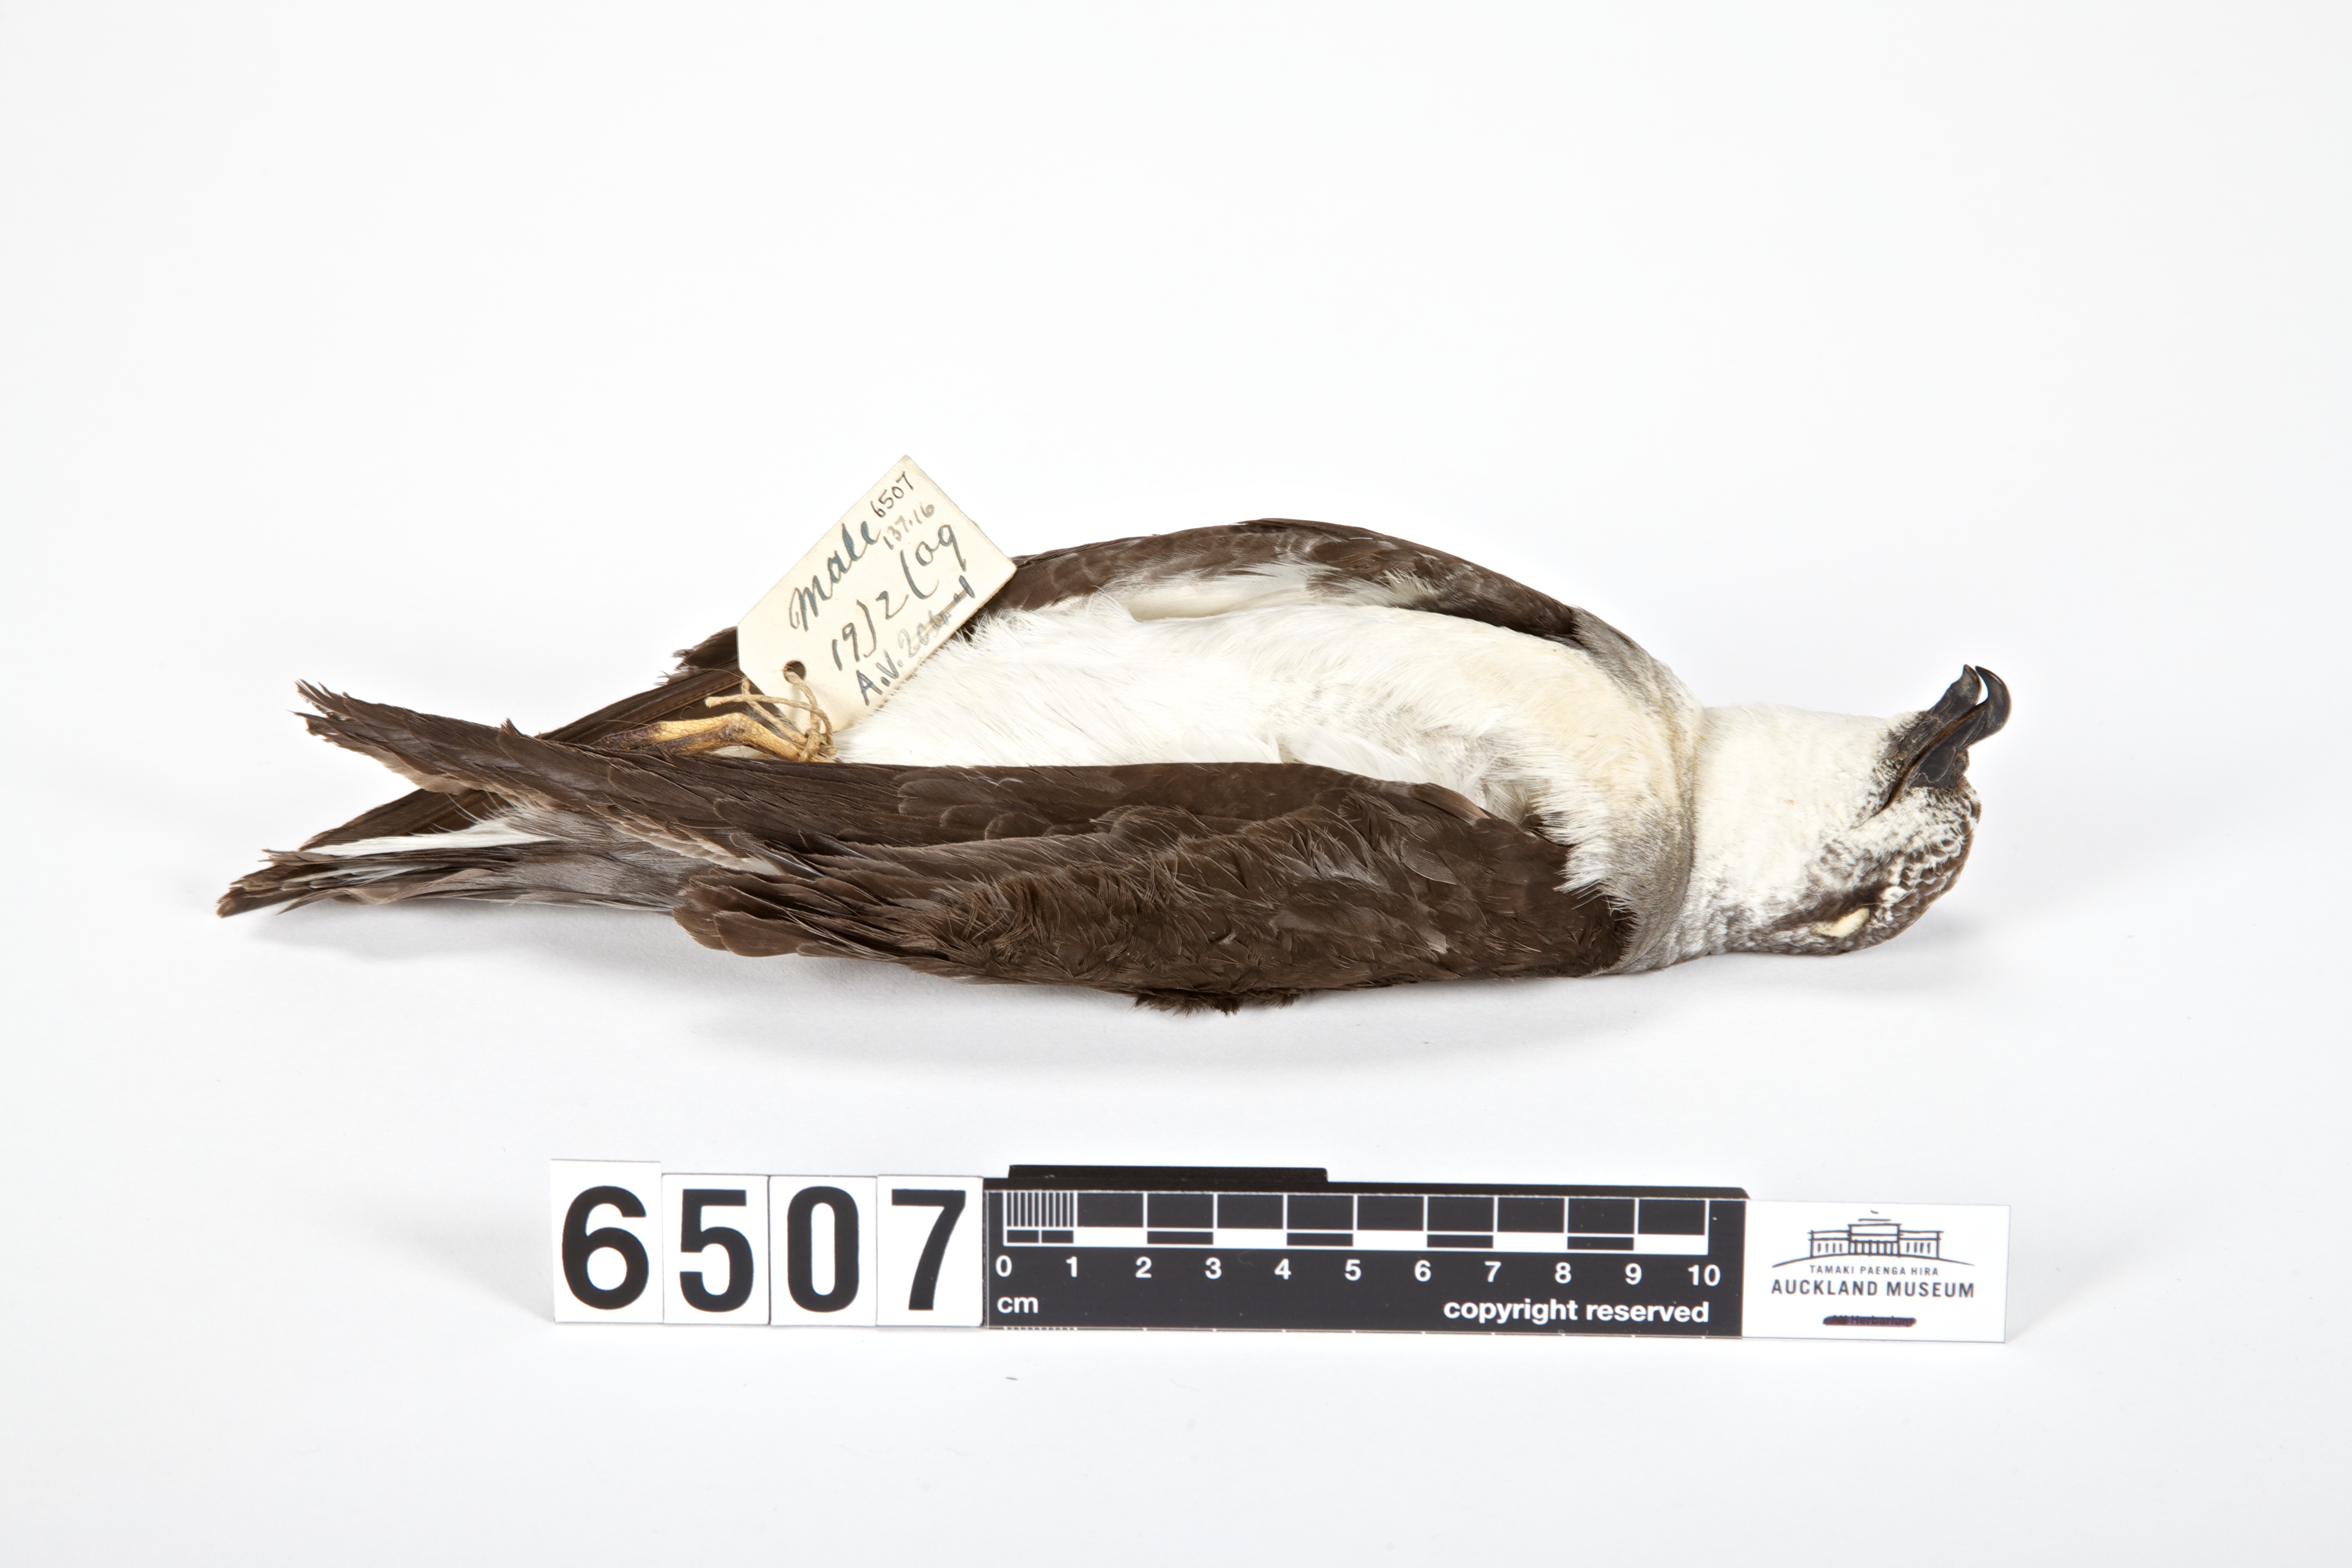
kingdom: Animalia
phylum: Chordata
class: Aves
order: Procellariiformes
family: Procellariidae
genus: Pterodroma
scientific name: Pterodroma nigripennis
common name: Black-winged petrel
